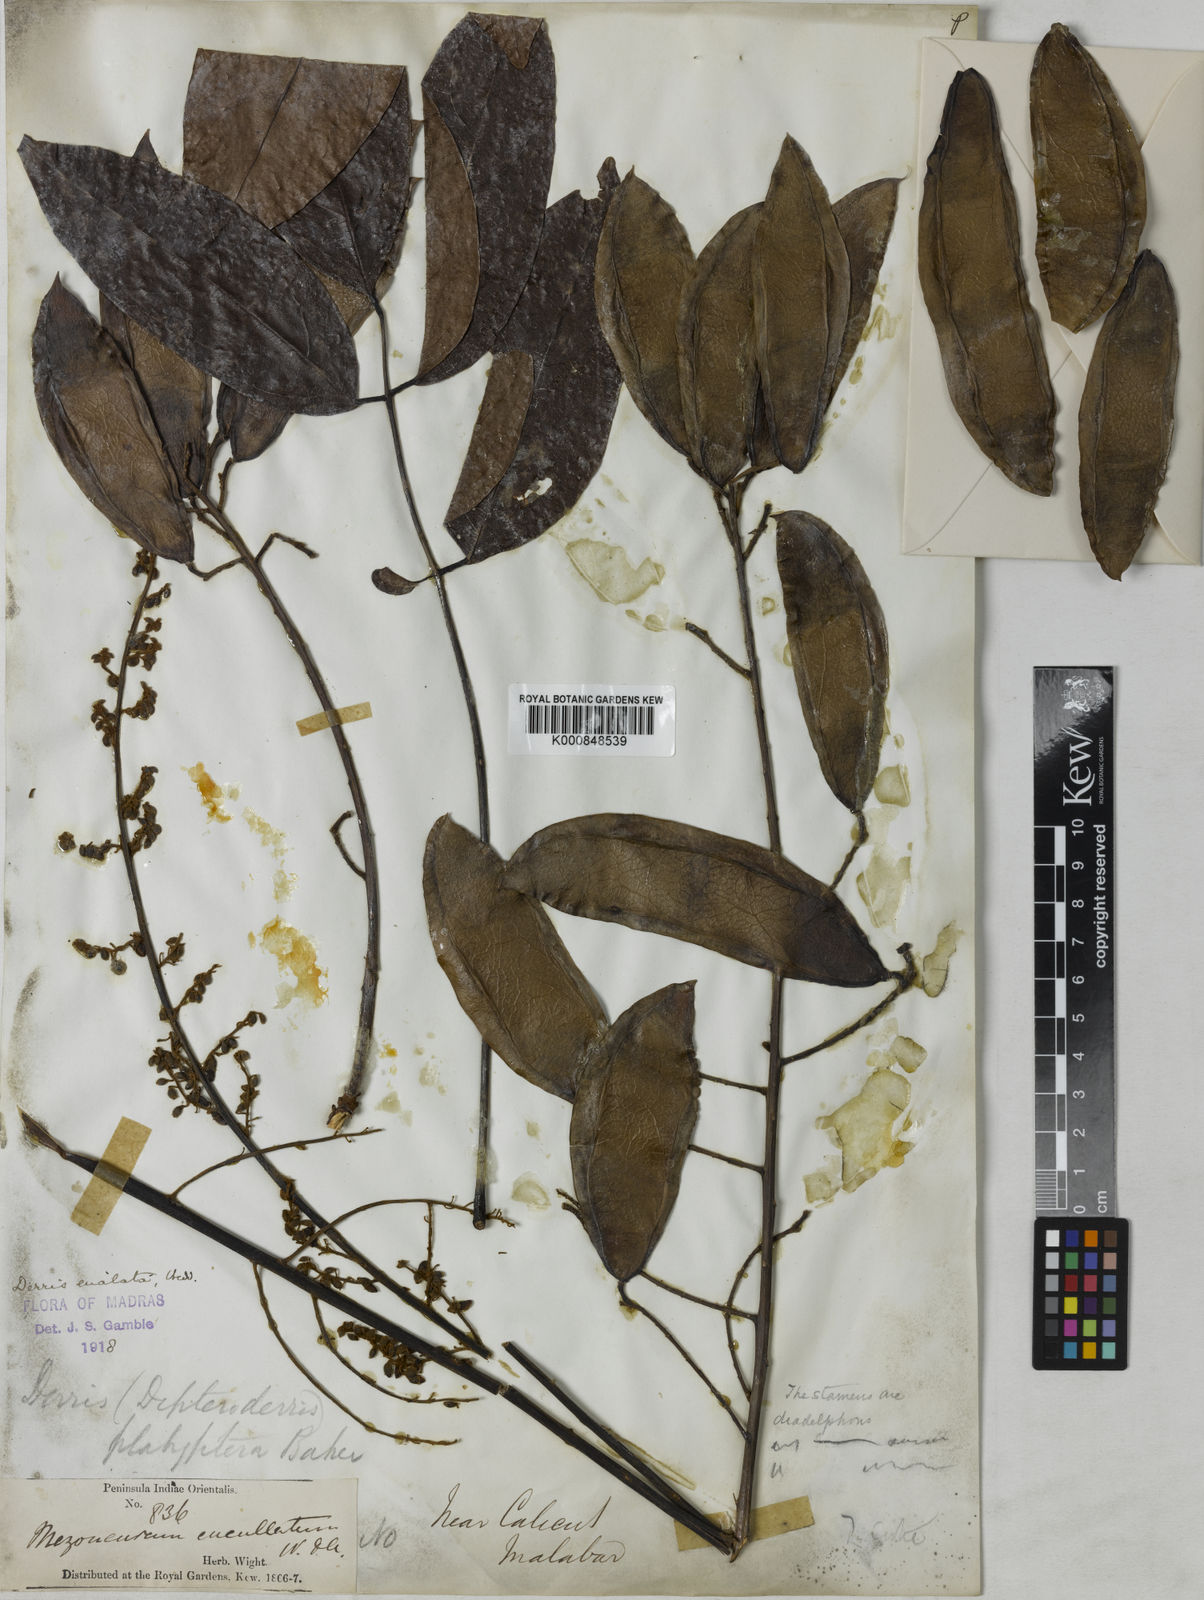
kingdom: Plantae
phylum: Tracheophyta
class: Magnoliopsida
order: Fabales
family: Fabaceae
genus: Aganope
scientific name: Aganope
